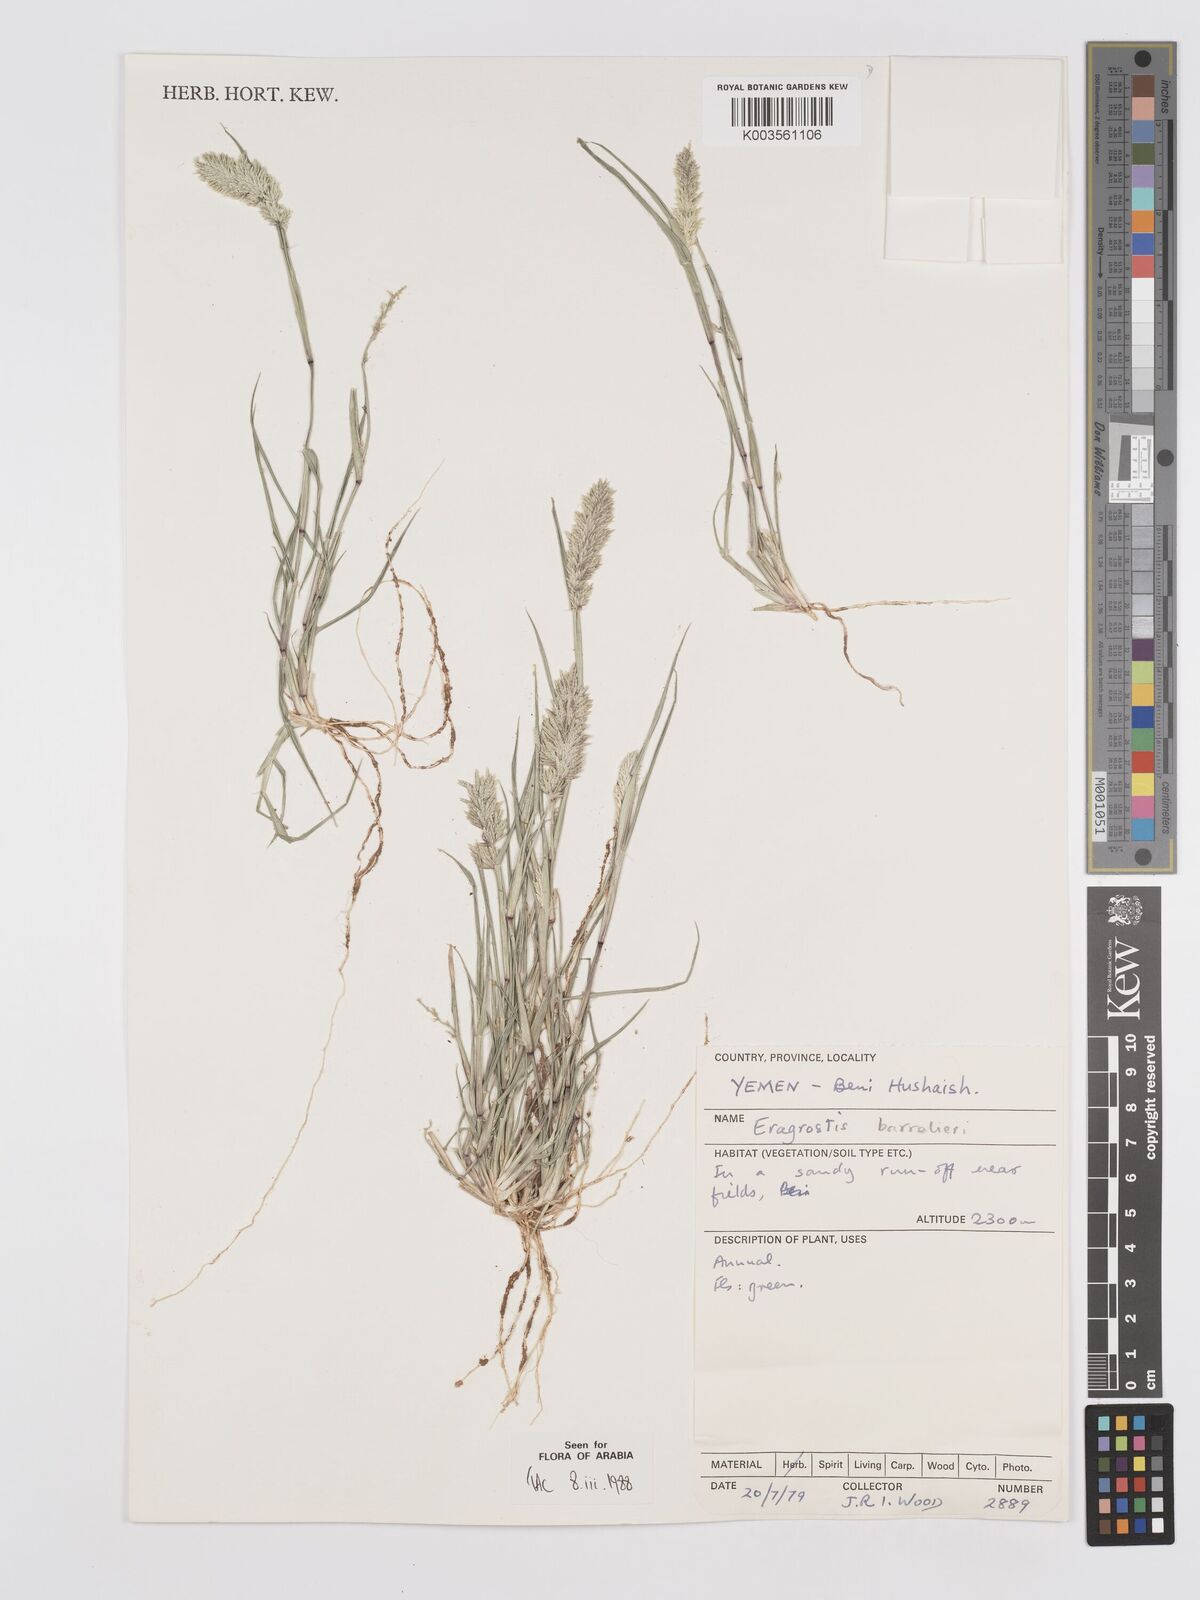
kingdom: Plantae
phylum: Tracheophyta
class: Liliopsida
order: Poales
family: Poaceae
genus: Eragrostis
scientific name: Eragrostis barrelieri
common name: Mediterranean lovegrass
